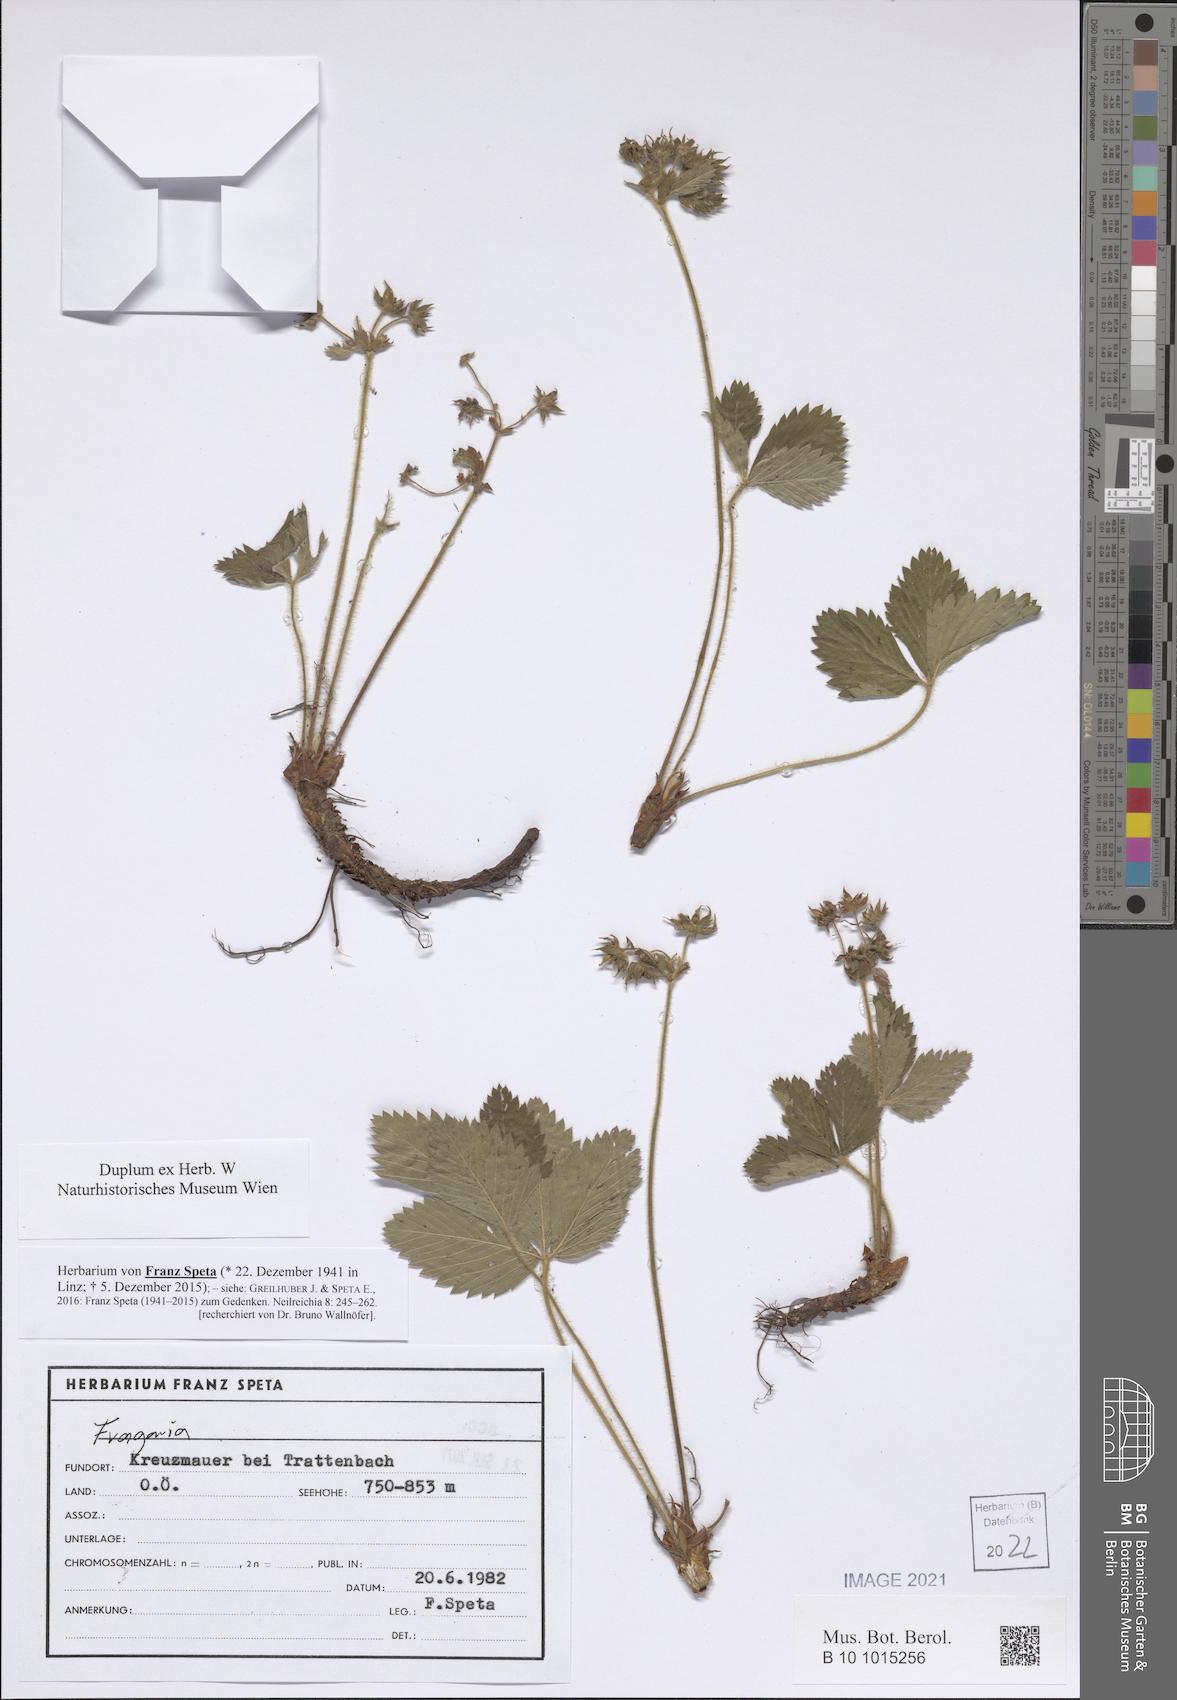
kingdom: Plantae
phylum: Tracheophyta
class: Magnoliopsida
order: Rosales
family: Rosaceae
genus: Fragaria
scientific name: Fragaria
